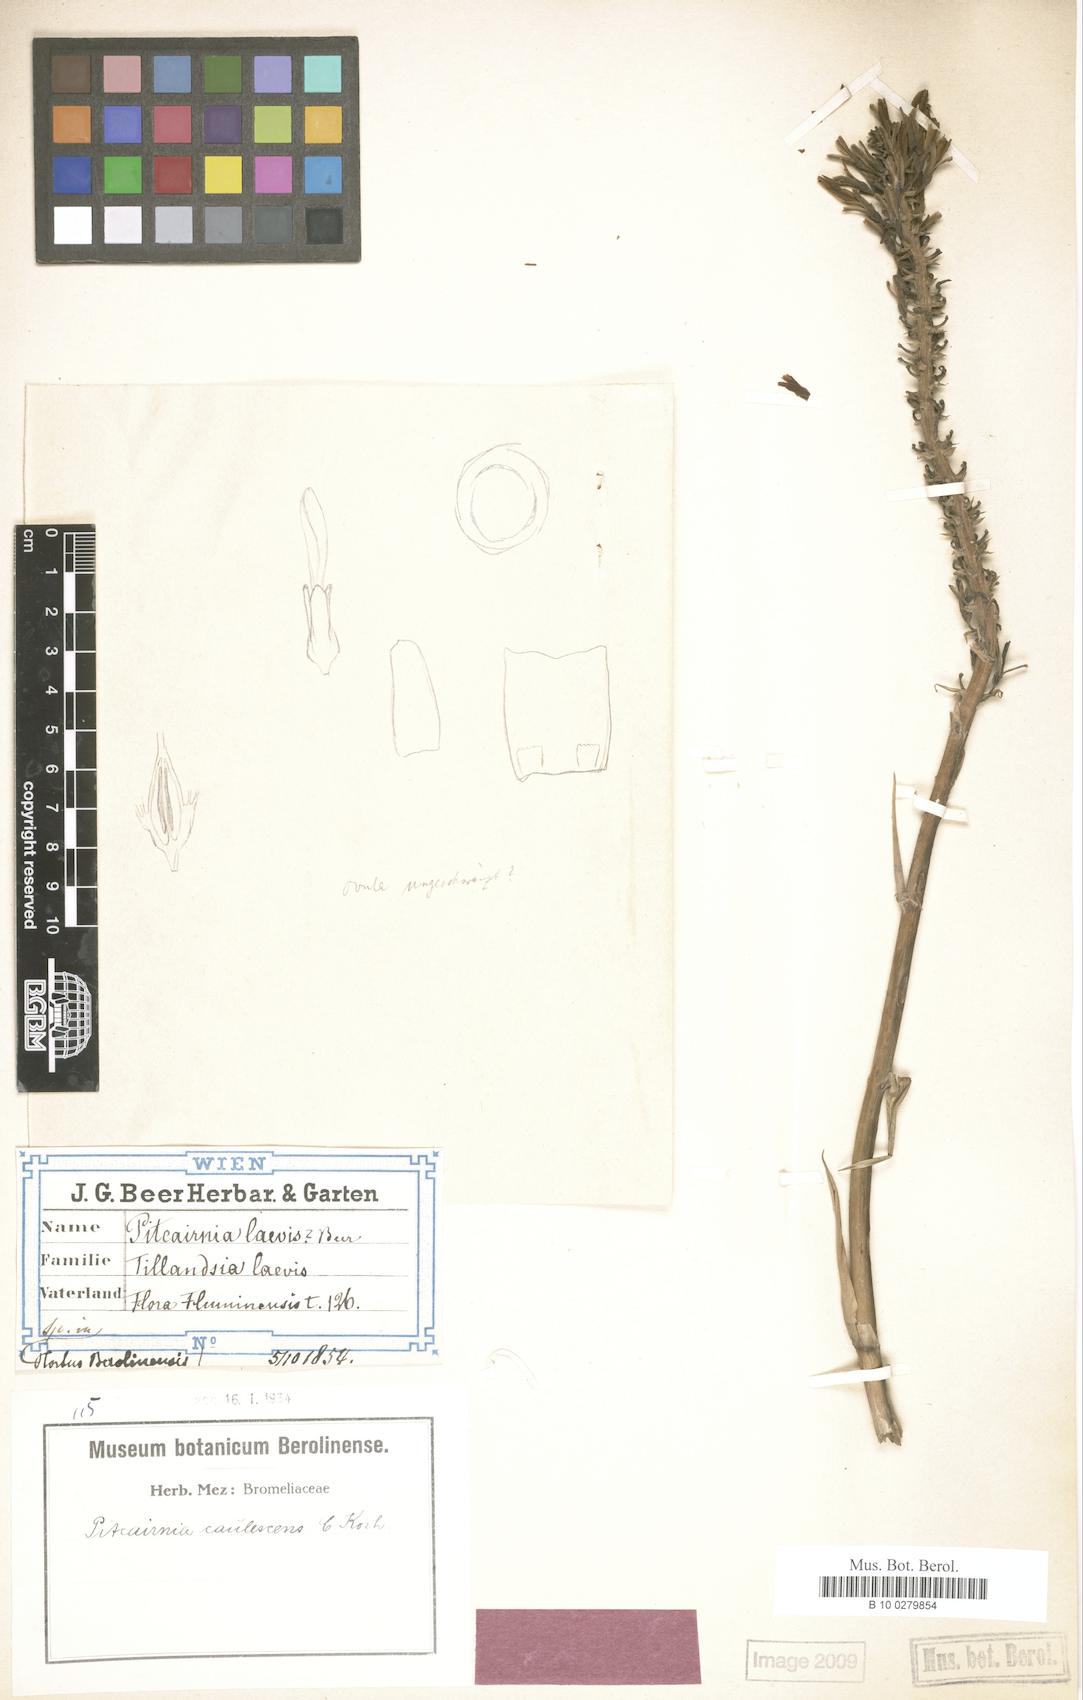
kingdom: Plantae
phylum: Tracheophyta
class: Liliopsida
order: Poales
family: Bromeliaceae
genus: Pitcairnia
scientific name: Pitcairnia caulescens
